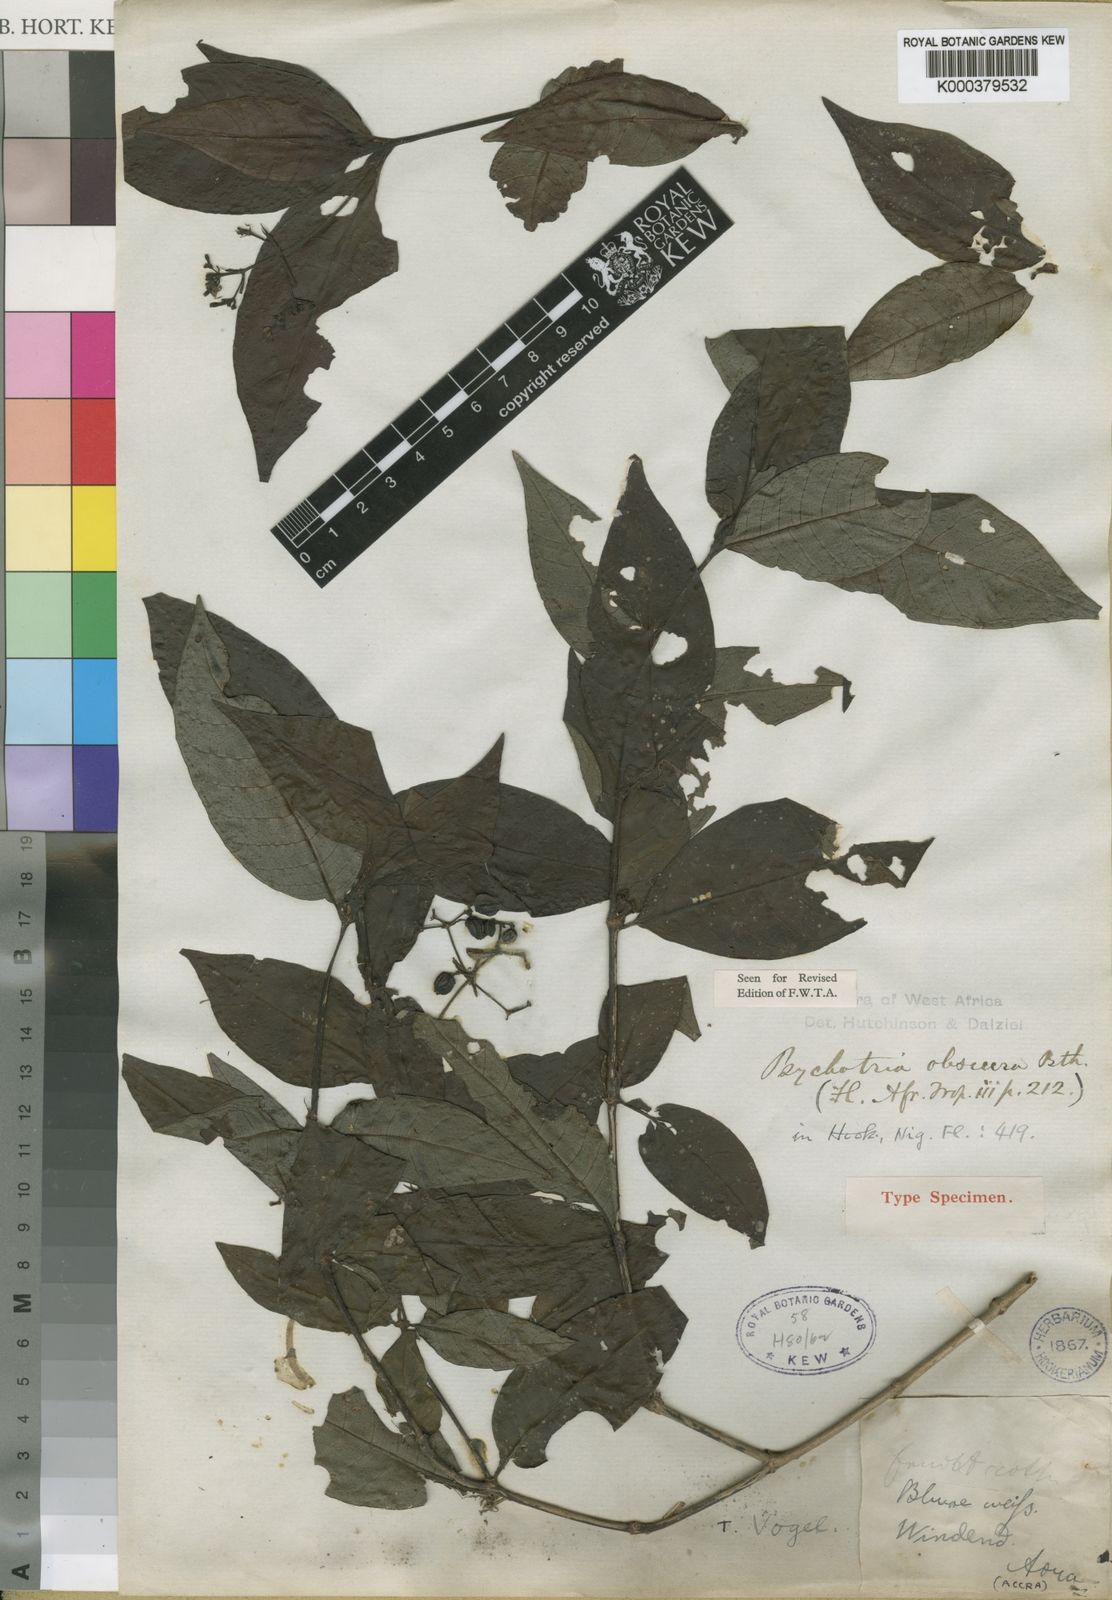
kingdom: Plantae
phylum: Tracheophyta
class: Magnoliopsida
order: Gentianales
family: Rubiaceae
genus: Psychotria
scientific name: Psychotria schweinfurthii
